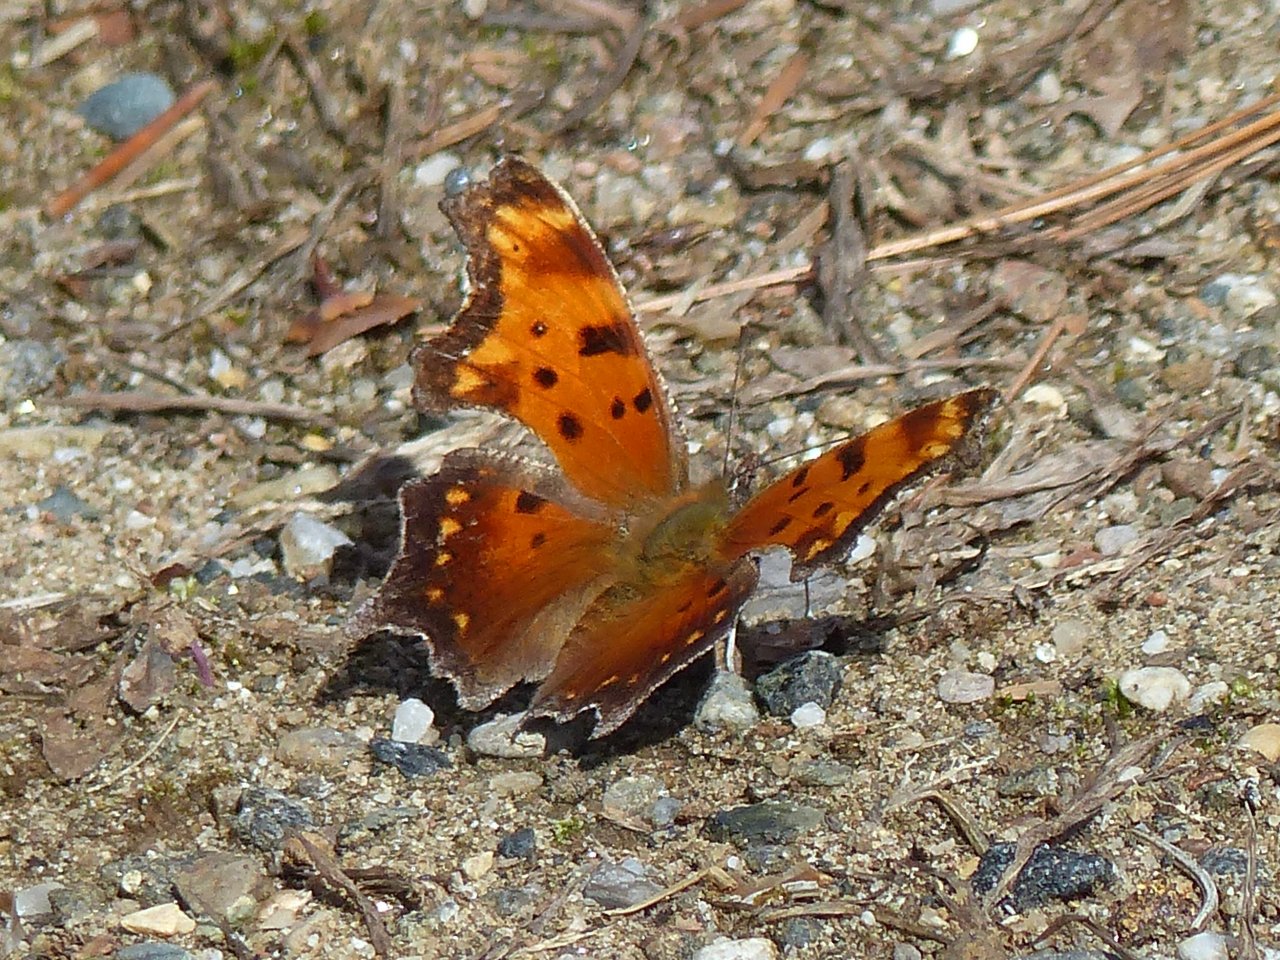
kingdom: Animalia
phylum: Arthropoda
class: Insecta
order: Lepidoptera
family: Nymphalidae
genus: Polygonia
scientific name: Polygonia progne
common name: Gray Comma
